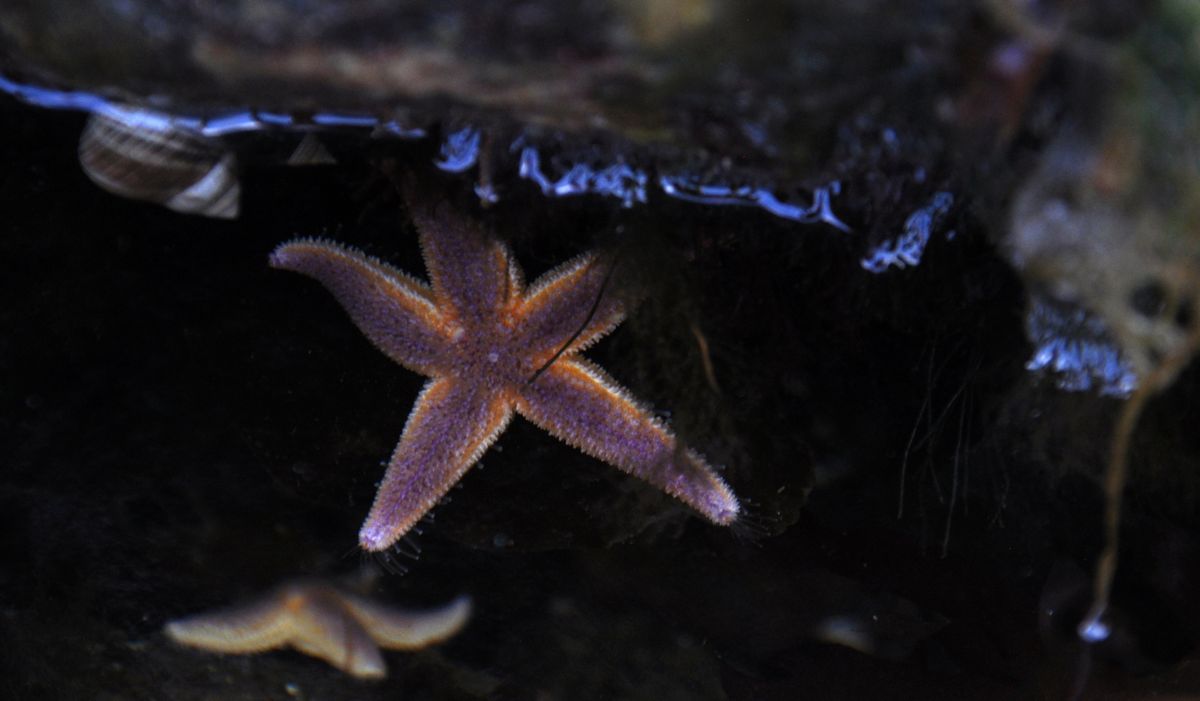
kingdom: Animalia
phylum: Echinodermata
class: Asteroidea
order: Forcipulatida
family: Asteriidae
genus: Asterias
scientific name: Asterias rubens
